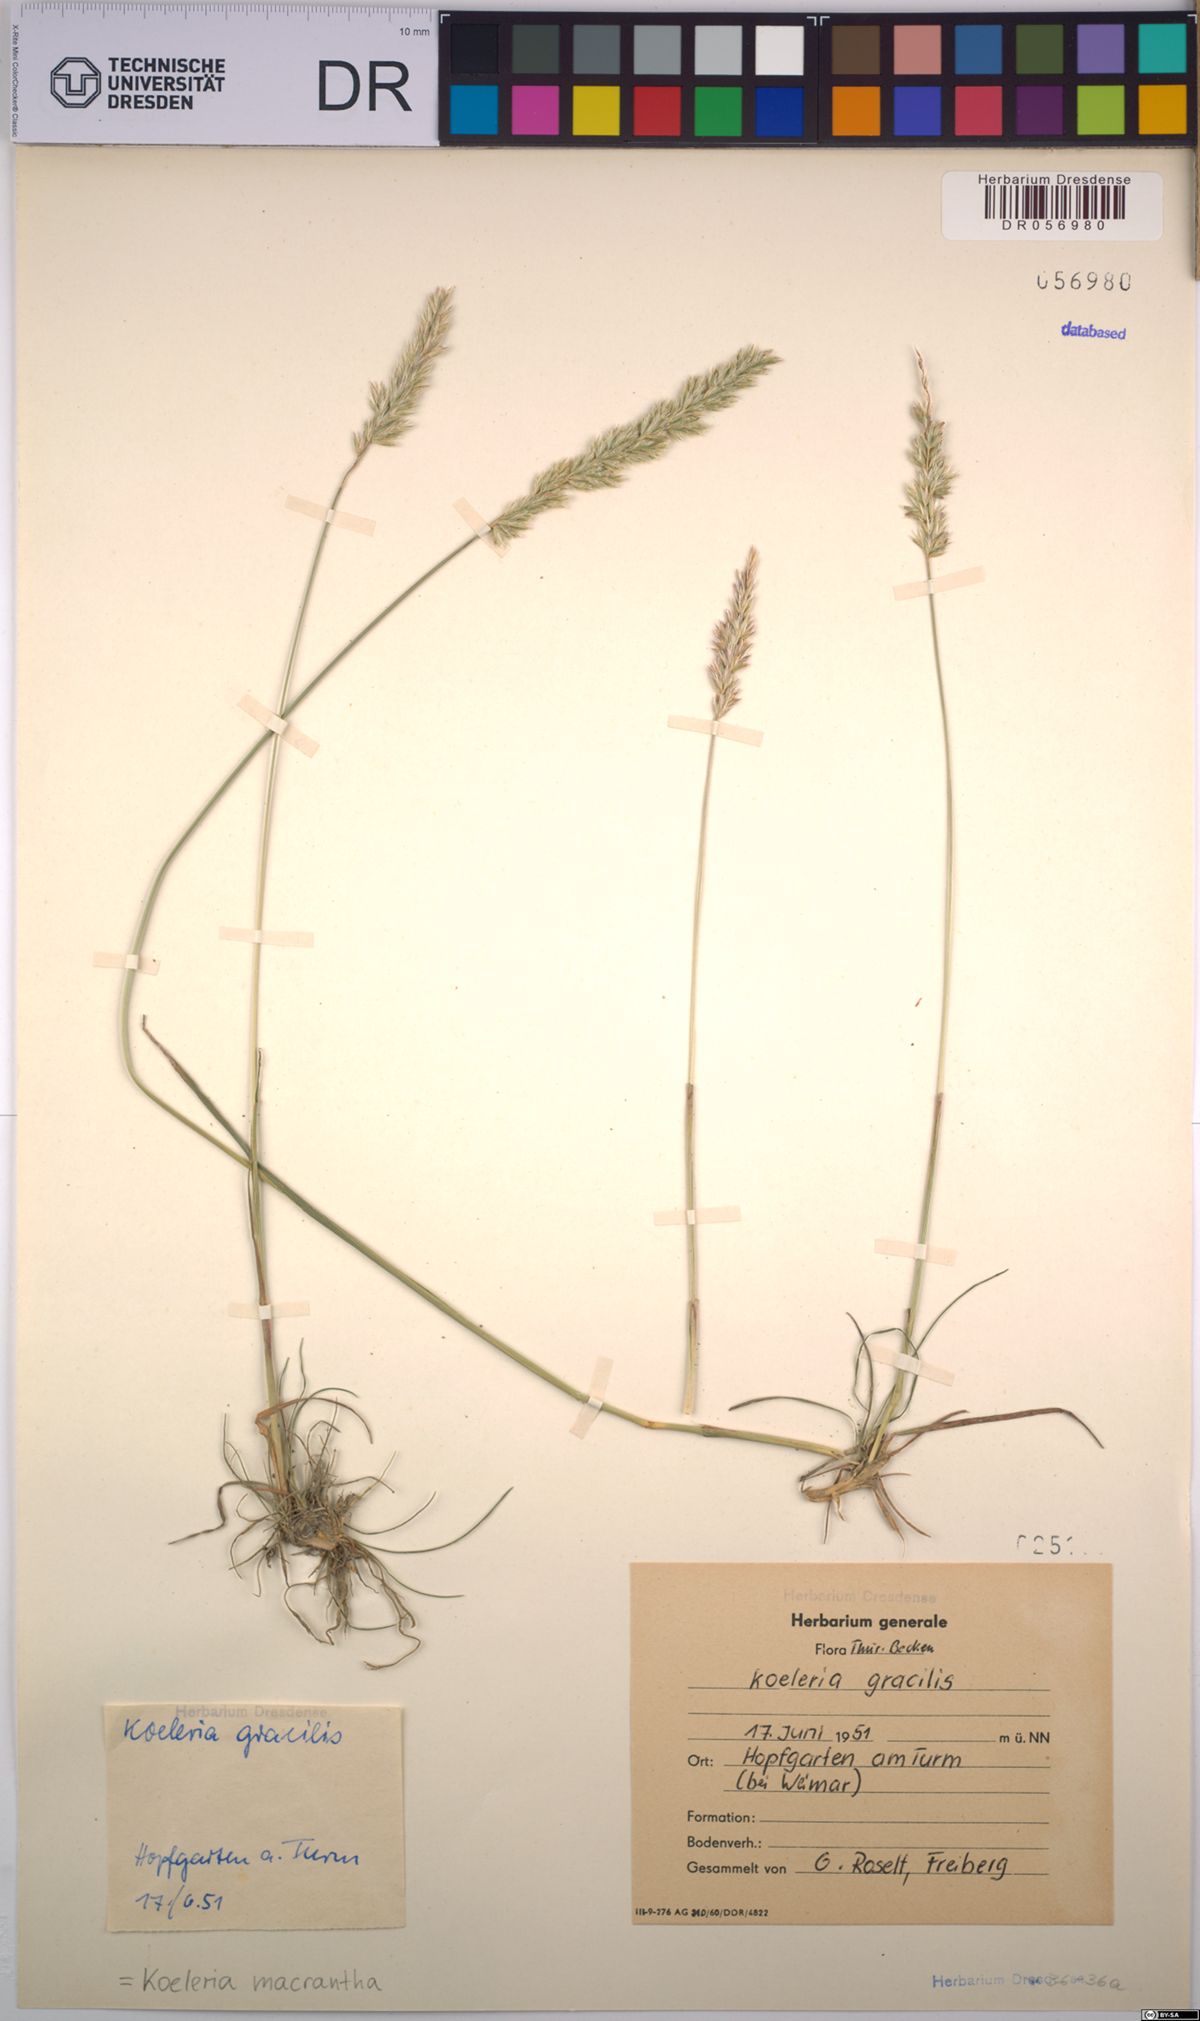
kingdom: Plantae
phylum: Tracheophyta
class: Liliopsida
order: Poales
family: Poaceae
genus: Koeleria
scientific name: Koeleria macrantha
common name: Crested hair-grass
